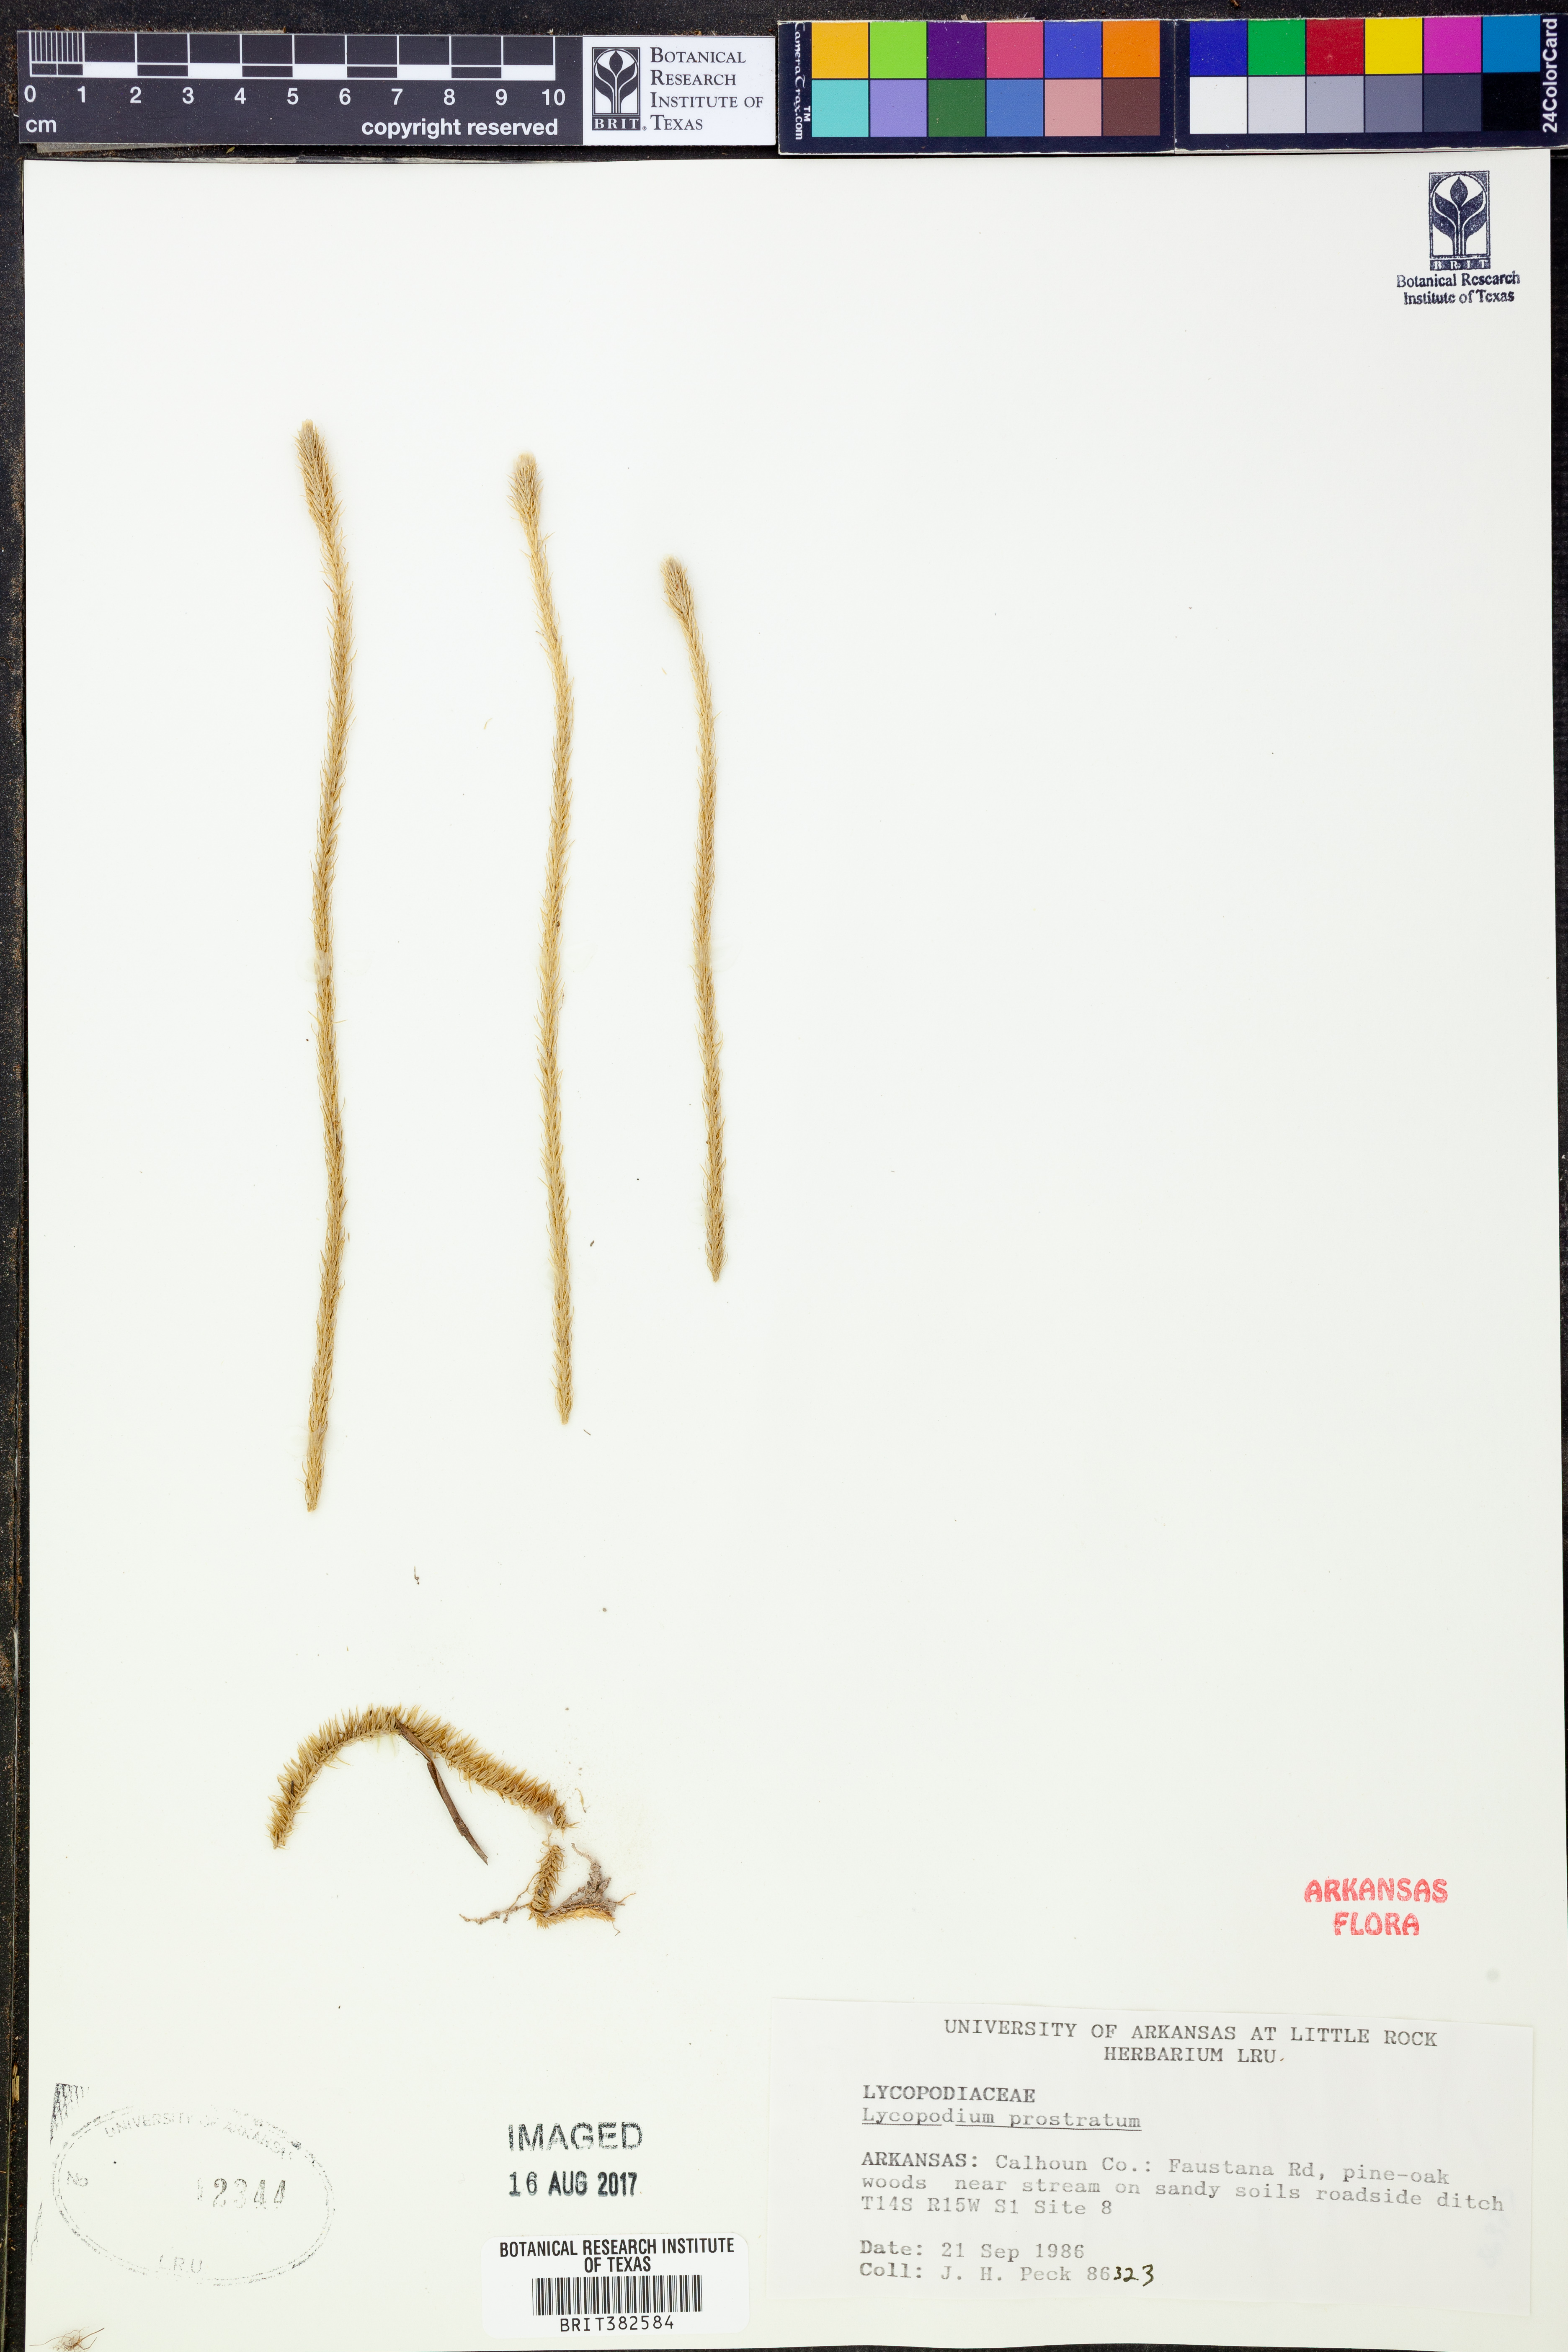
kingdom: Plantae
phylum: Tracheophyta
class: Lycopodiopsida
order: Lycopodiales
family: Lycopodiaceae
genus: Lycopodiella
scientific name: Lycopodiella prostrata
